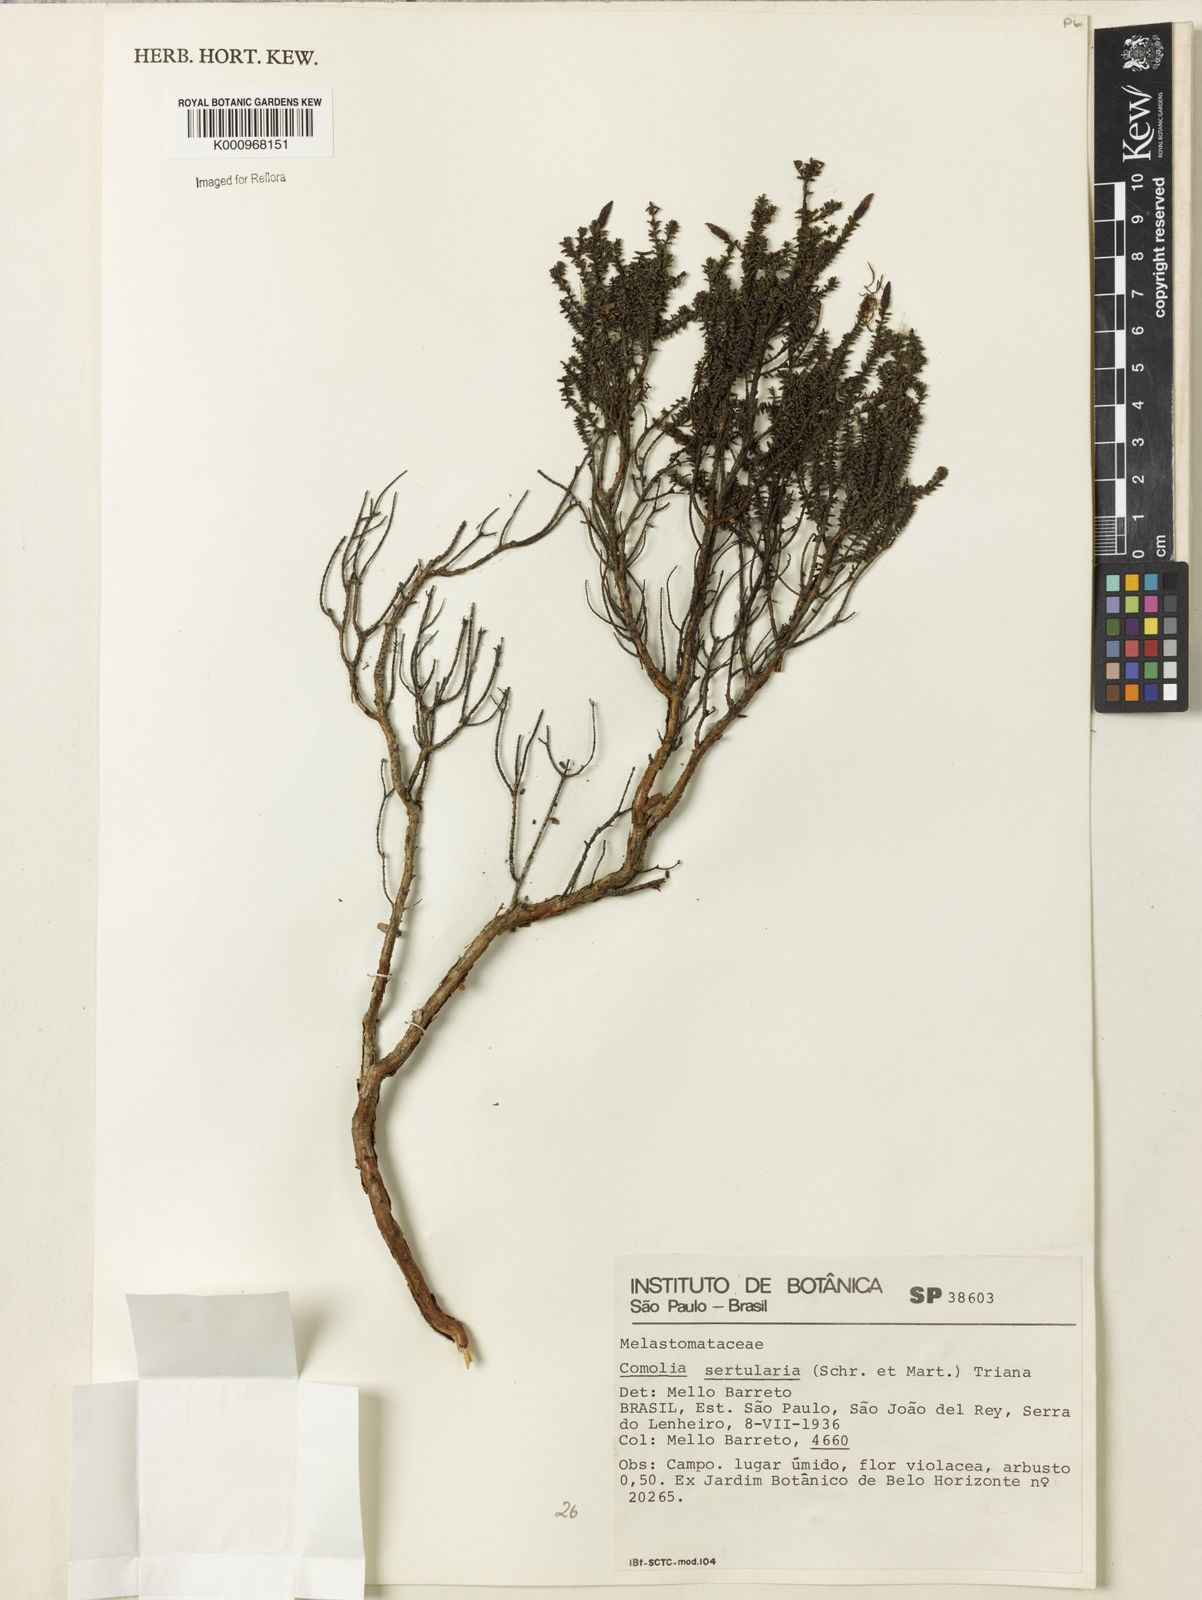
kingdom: Plantae
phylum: Tracheophyta
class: Magnoliopsida
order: Myrtales
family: Melastomataceae
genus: Fritzschia
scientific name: Fritzschia sertularia
